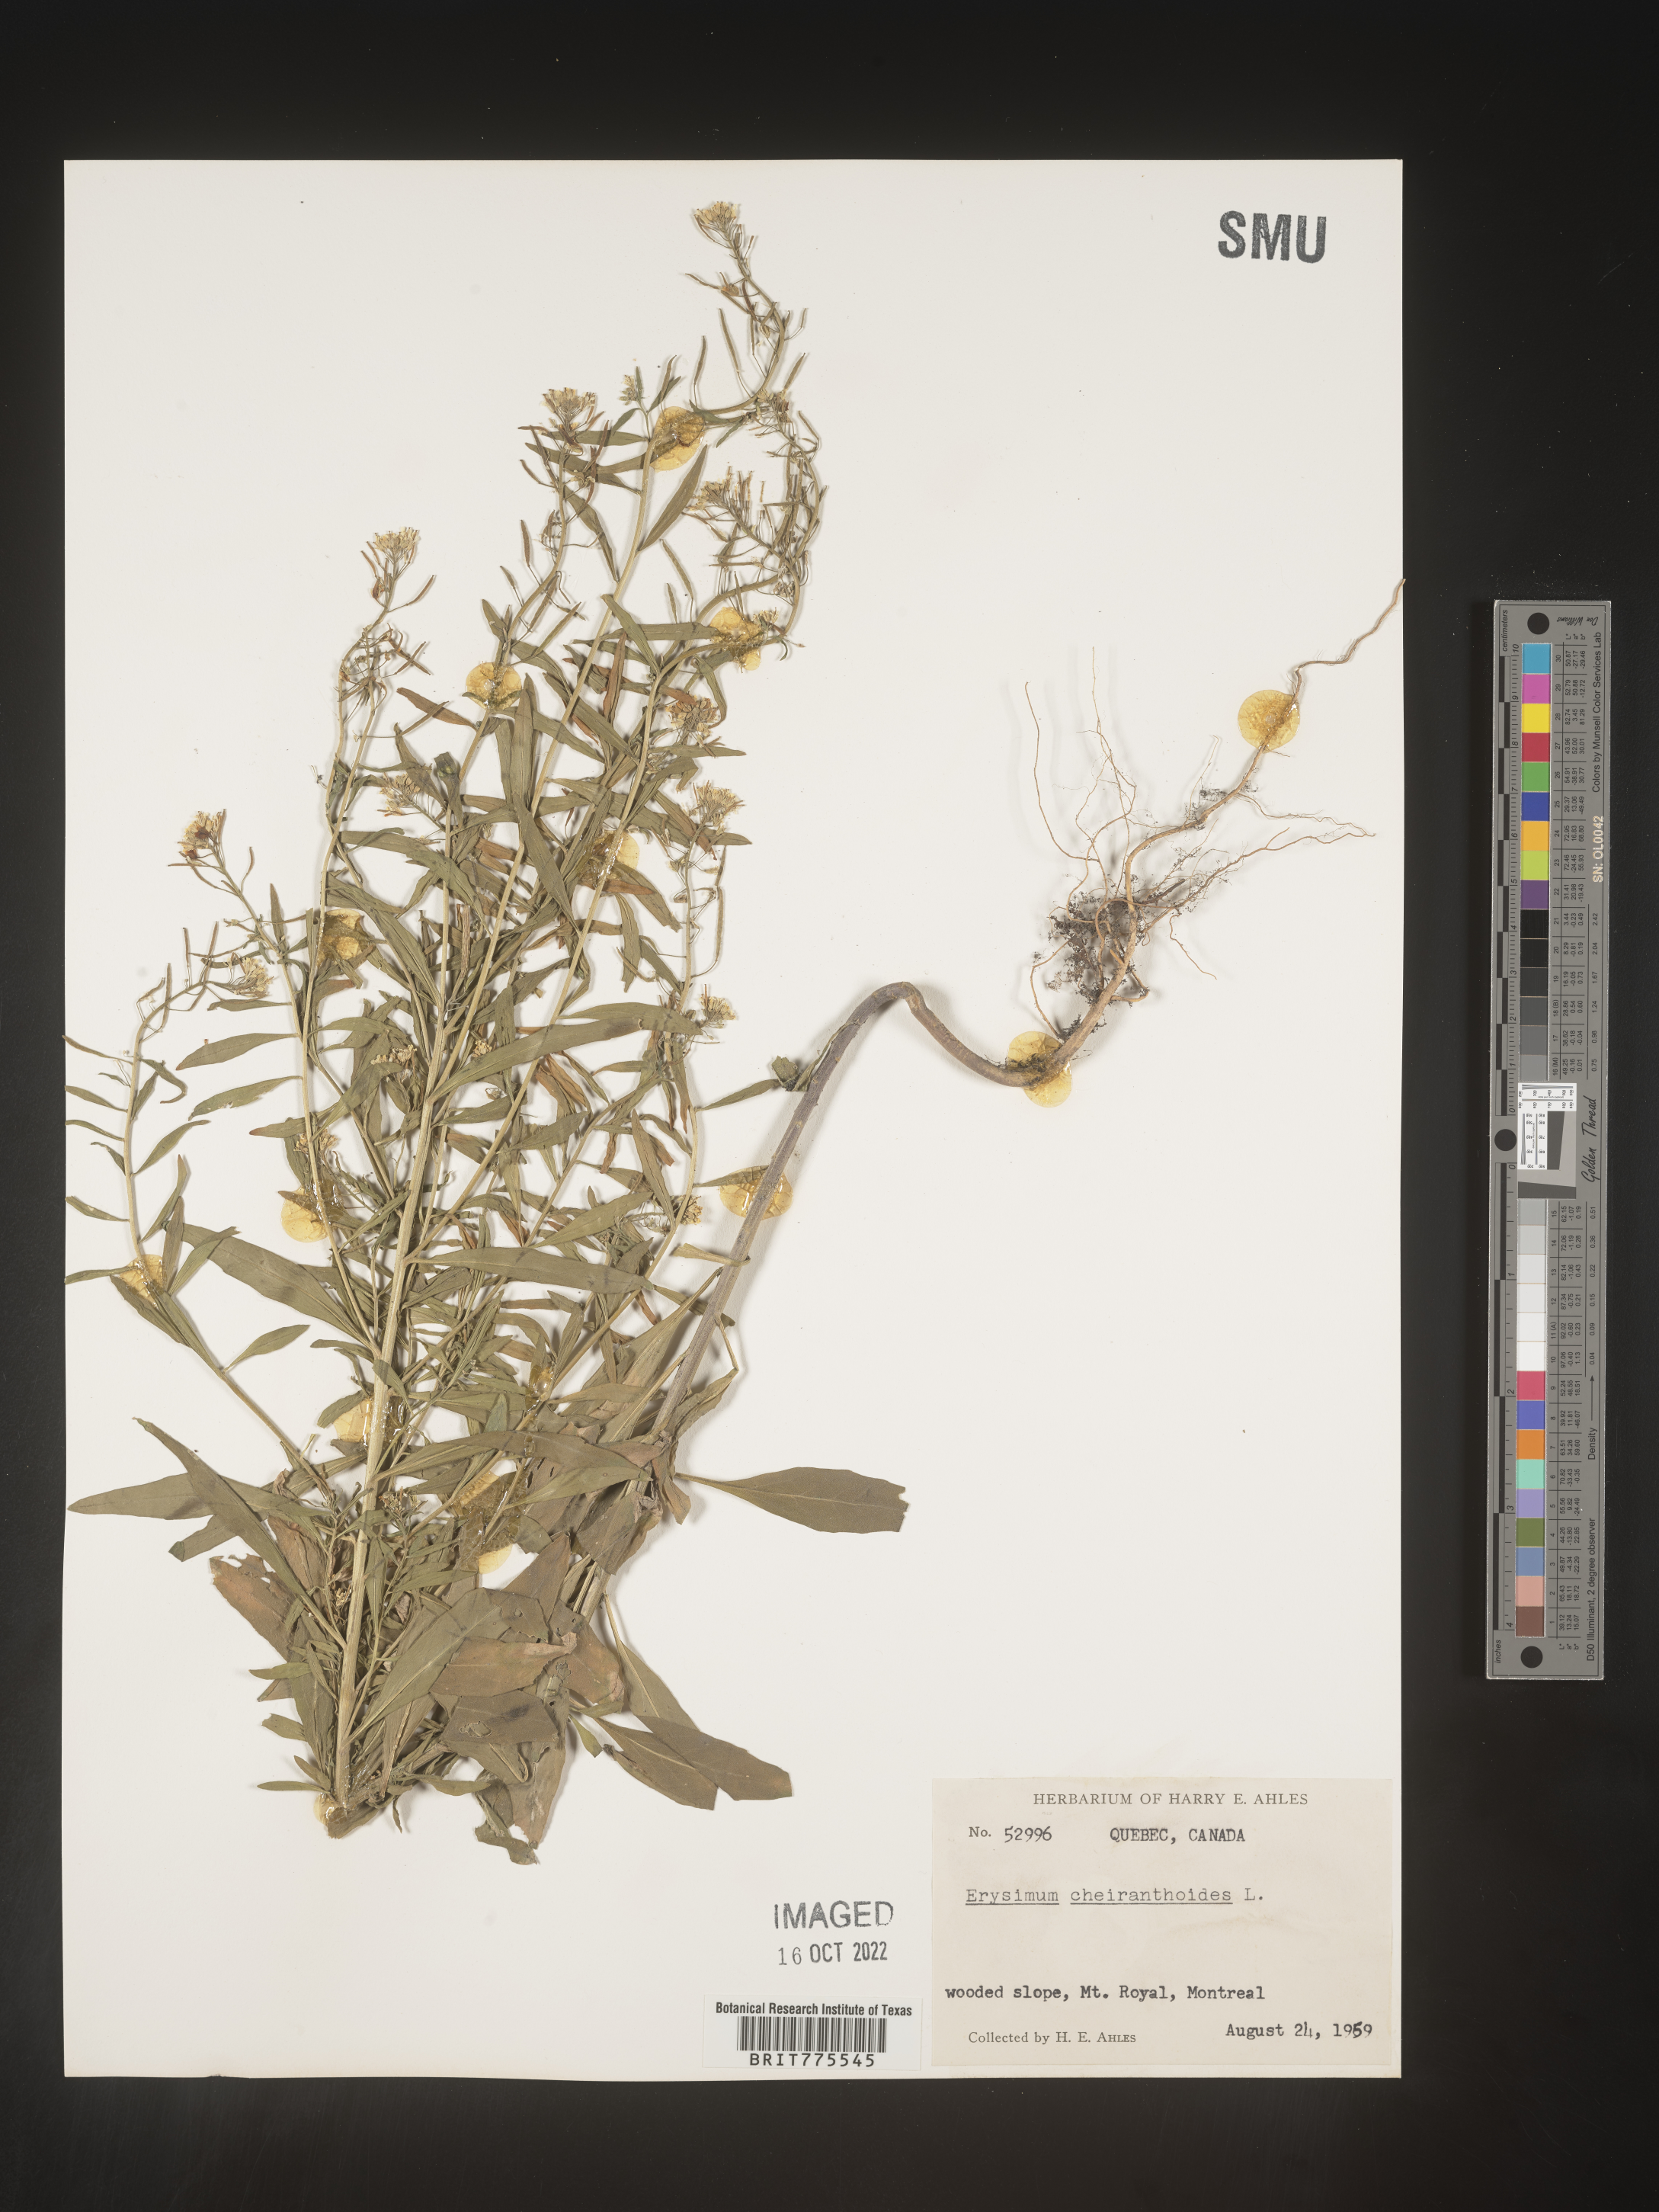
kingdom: Plantae
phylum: Tracheophyta
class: Magnoliopsida
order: Brassicales
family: Brassicaceae
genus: Erysimum
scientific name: Erysimum cheiranthoides
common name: Treacle mustard
